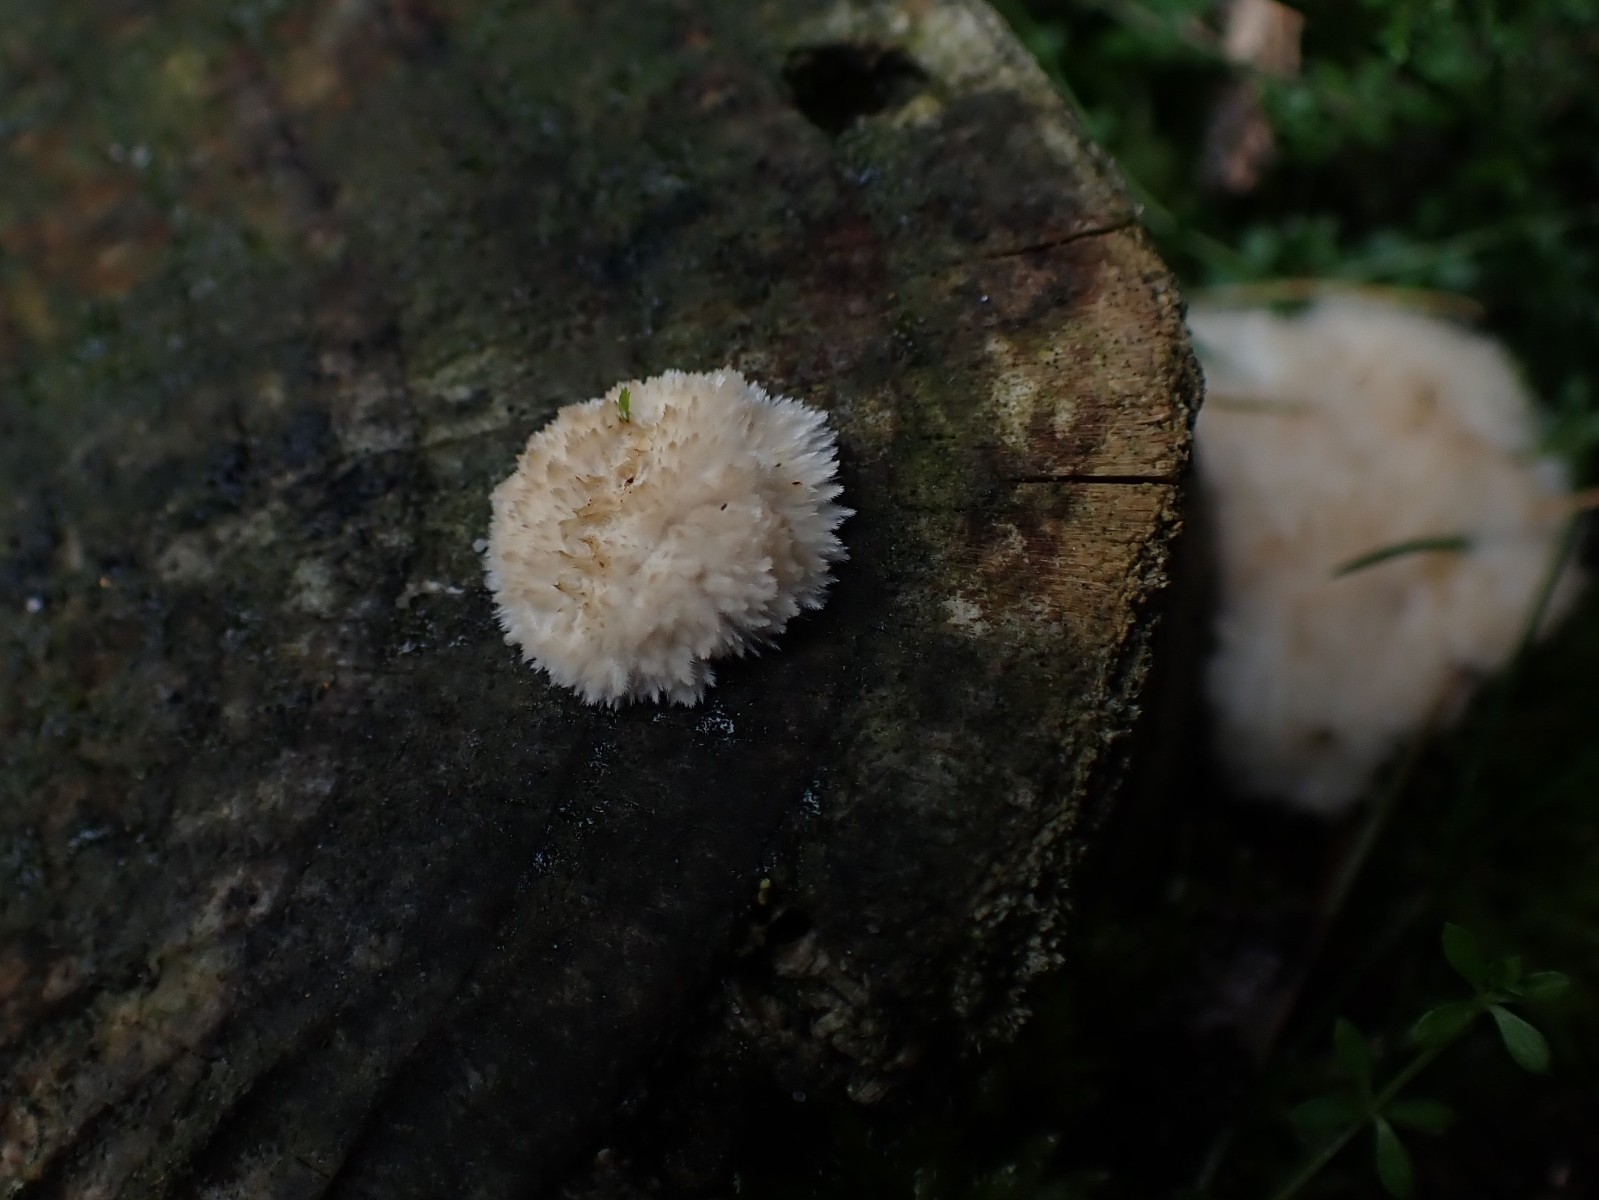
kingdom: Fungi
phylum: Basidiomycota
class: Agaricomycetes
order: Polyporales
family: Dacryobolaceae
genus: Postia
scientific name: Postia ptychogaster
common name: støvende kødporesvamp
